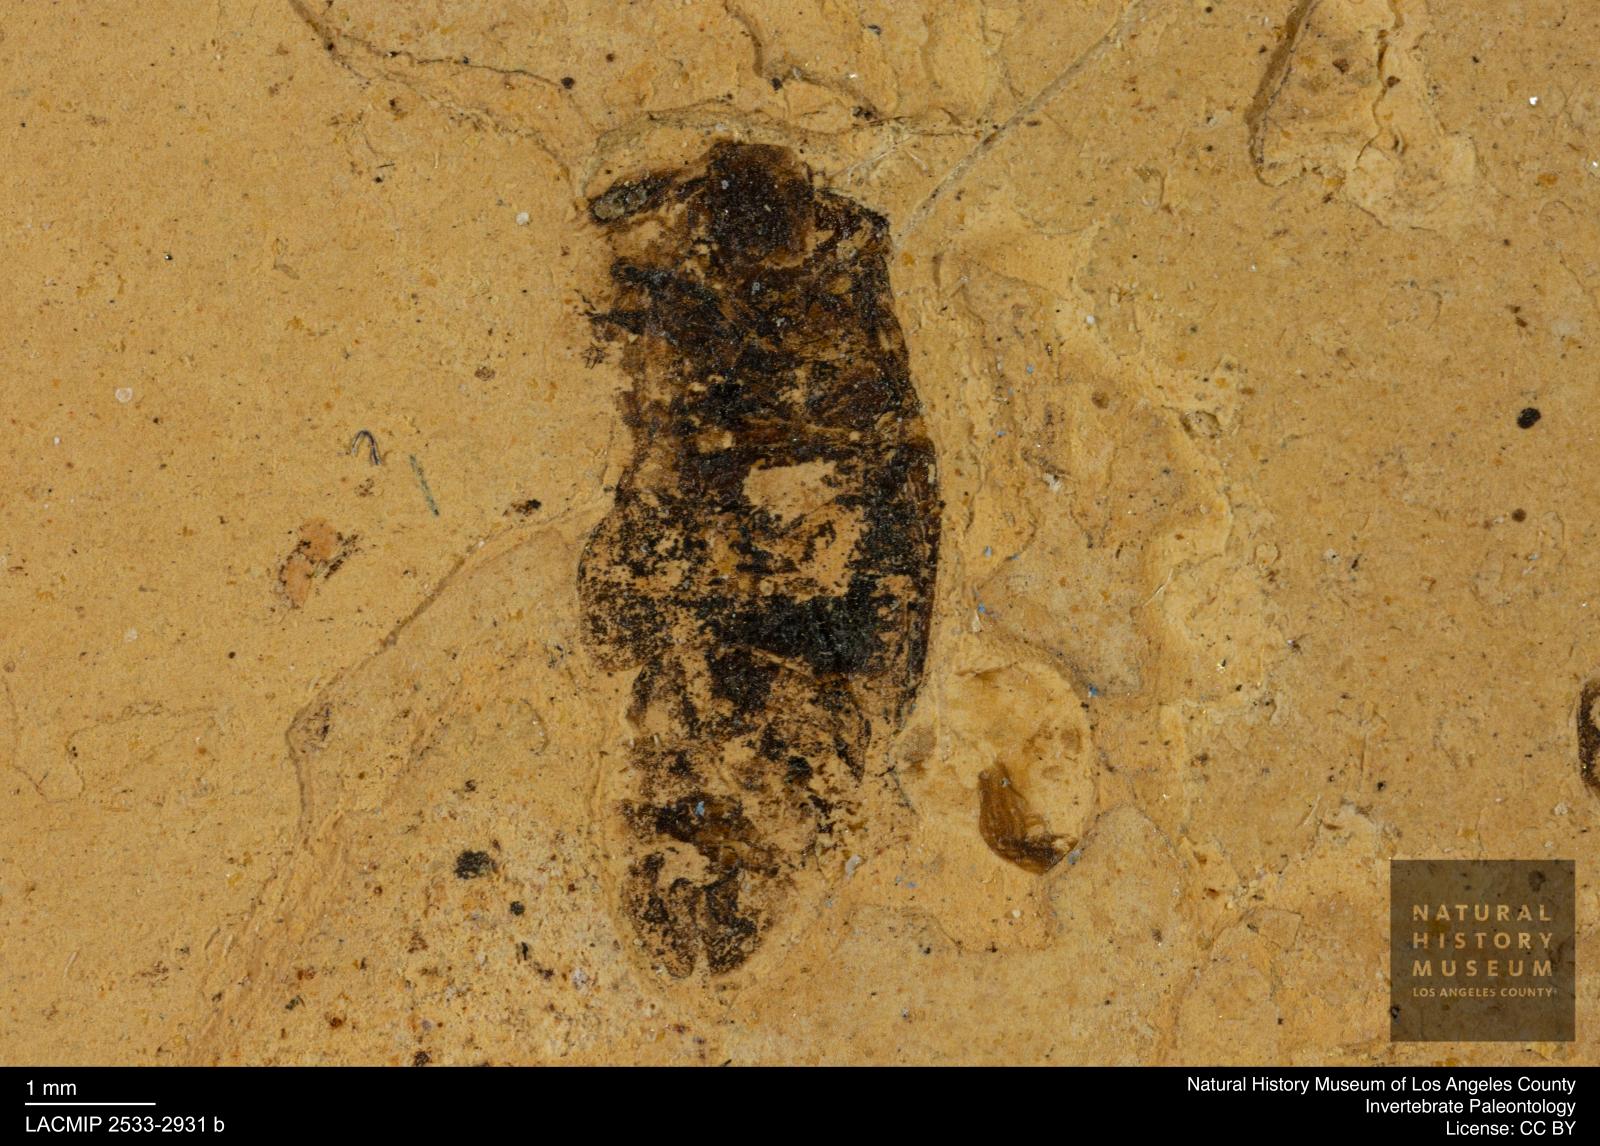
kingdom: Animalia
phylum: Arthropoda
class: Insecta
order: Hemiptera
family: Corixidae
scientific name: Corixidae
